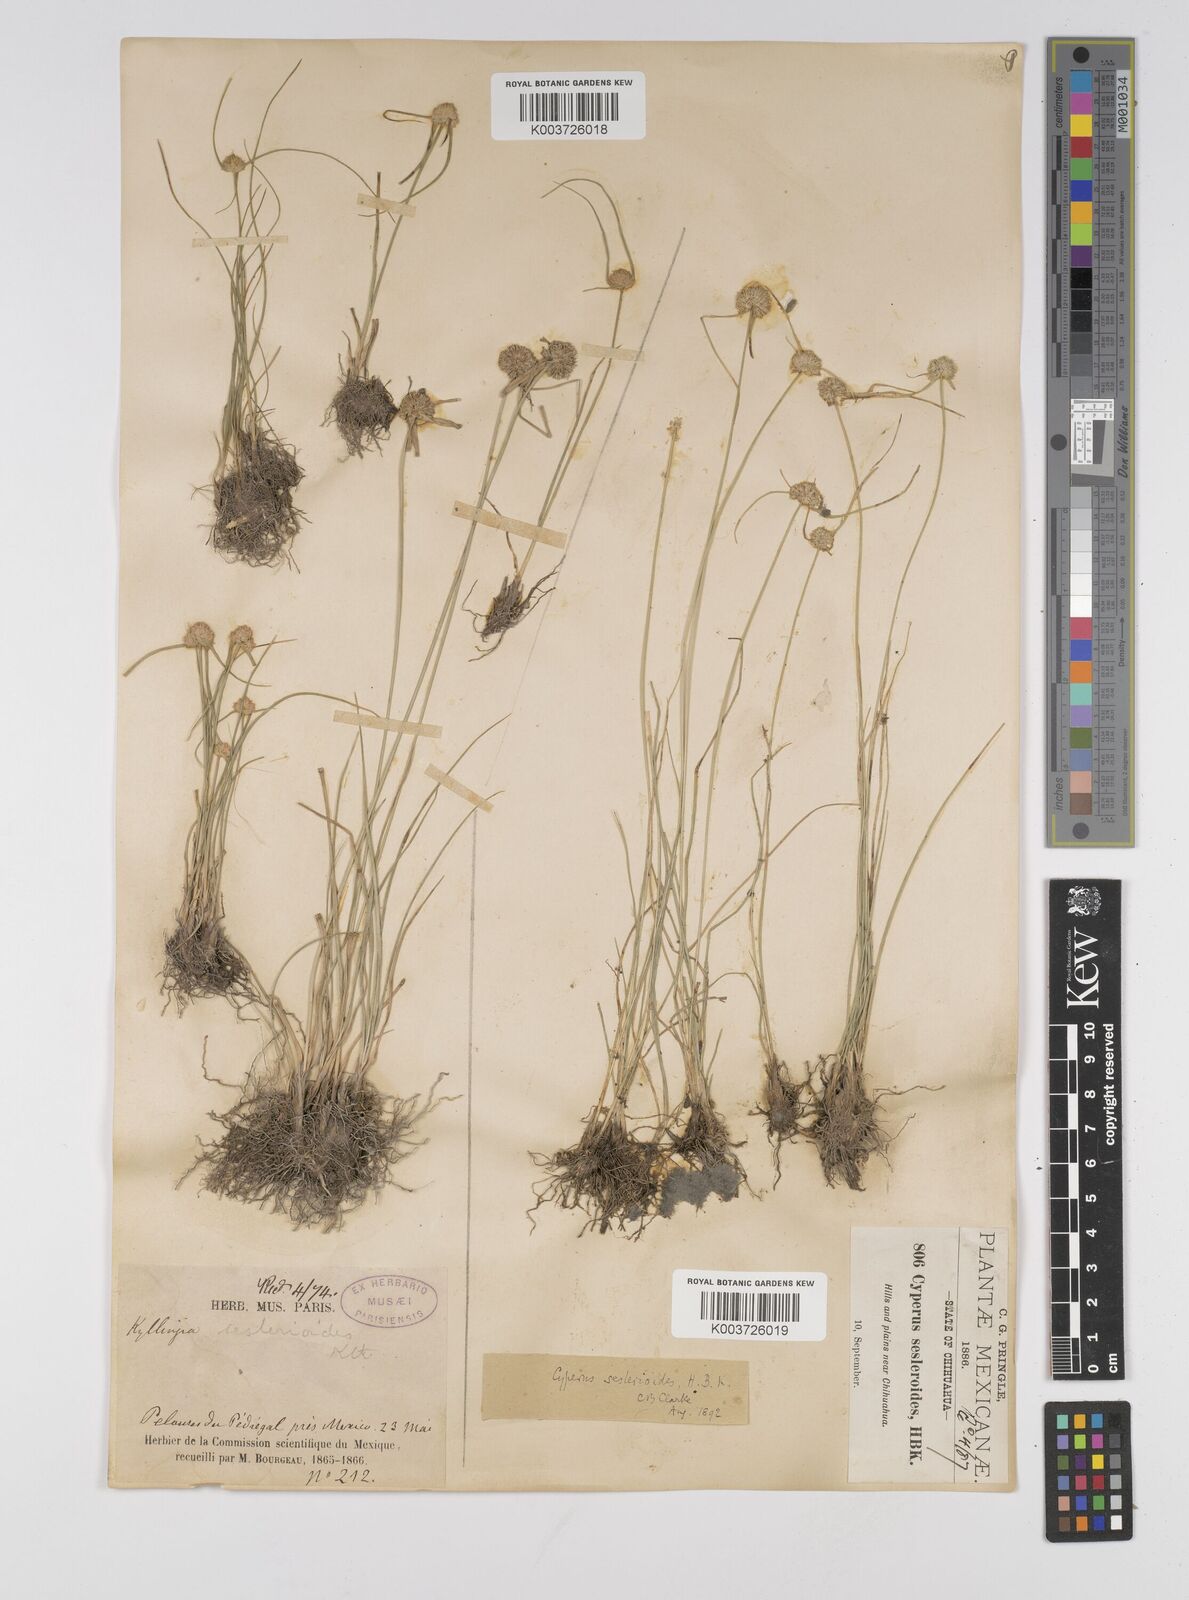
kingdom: Plantae
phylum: Tracheophyta
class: Liliopsida
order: Poales
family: Cyperaceae
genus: Cyperus
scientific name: Cyperus seslerioides
